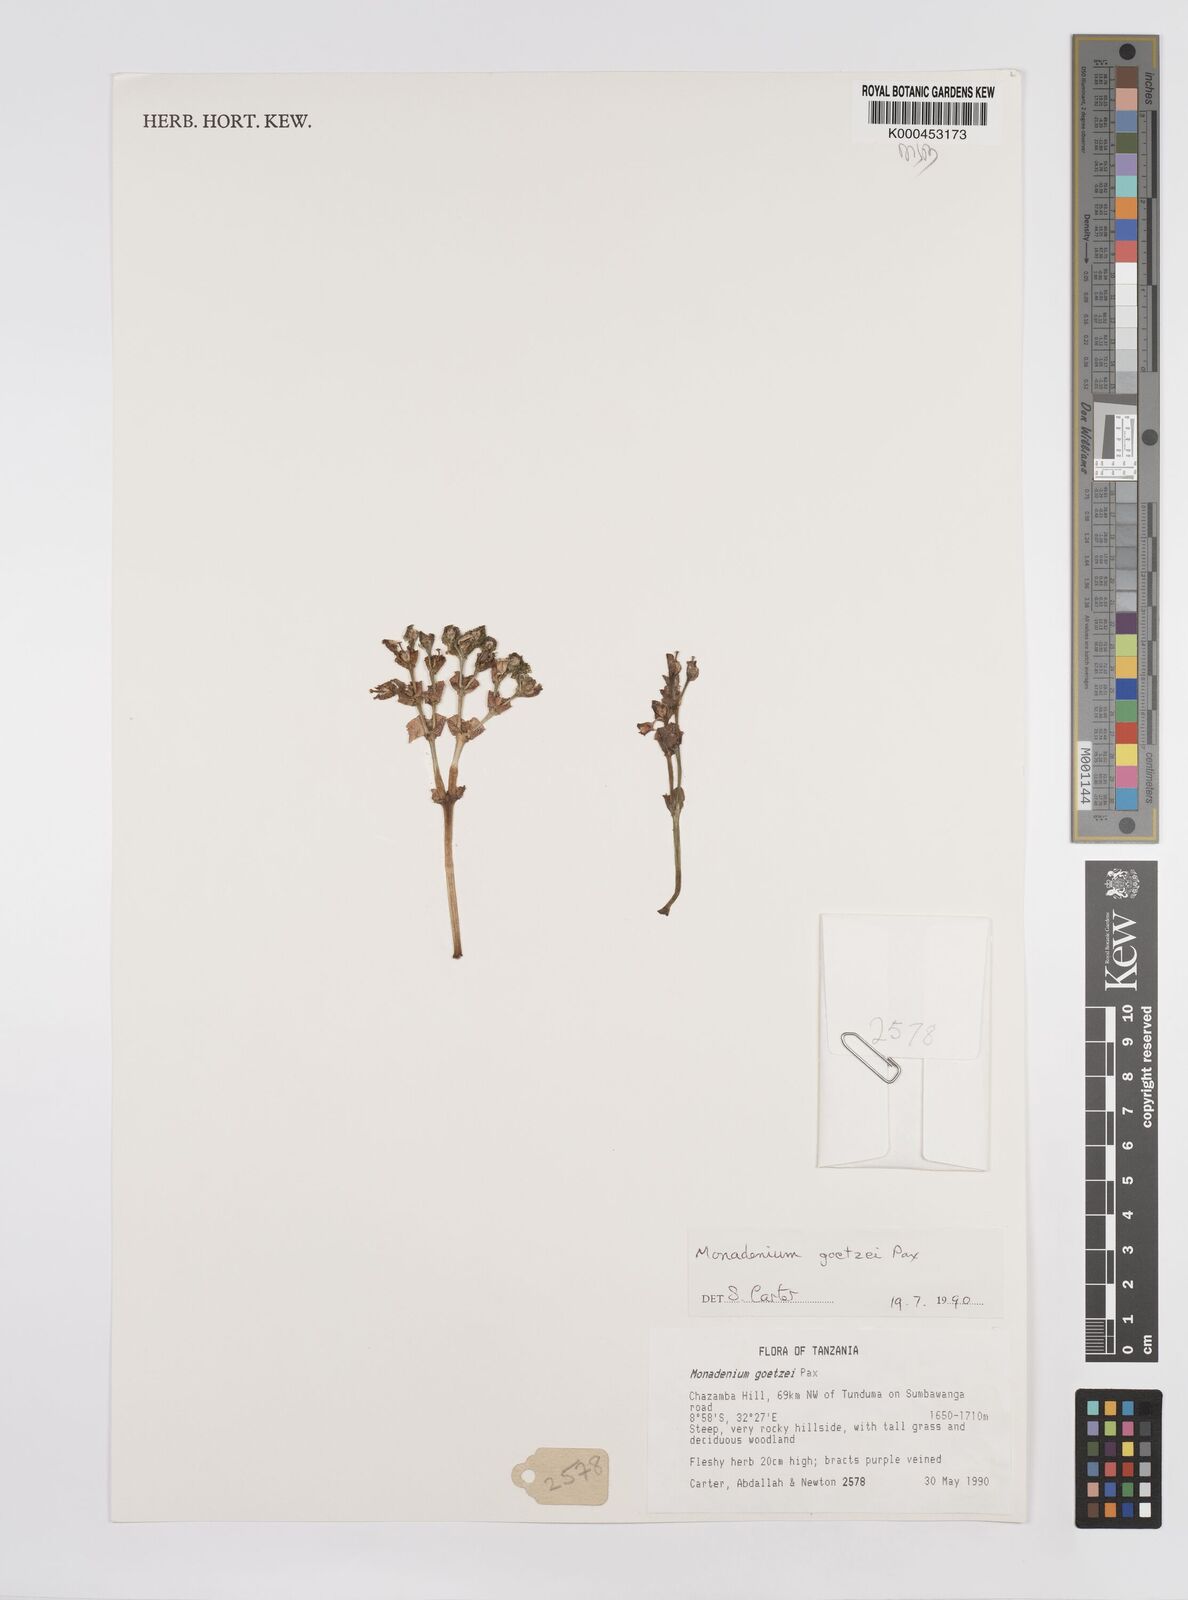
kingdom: Plantae
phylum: Tracheophyta
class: Magnoliopsida
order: Malpighiales
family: Euphorbiaceae
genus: Euphorbia
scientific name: Euphorbia neogoetzei
